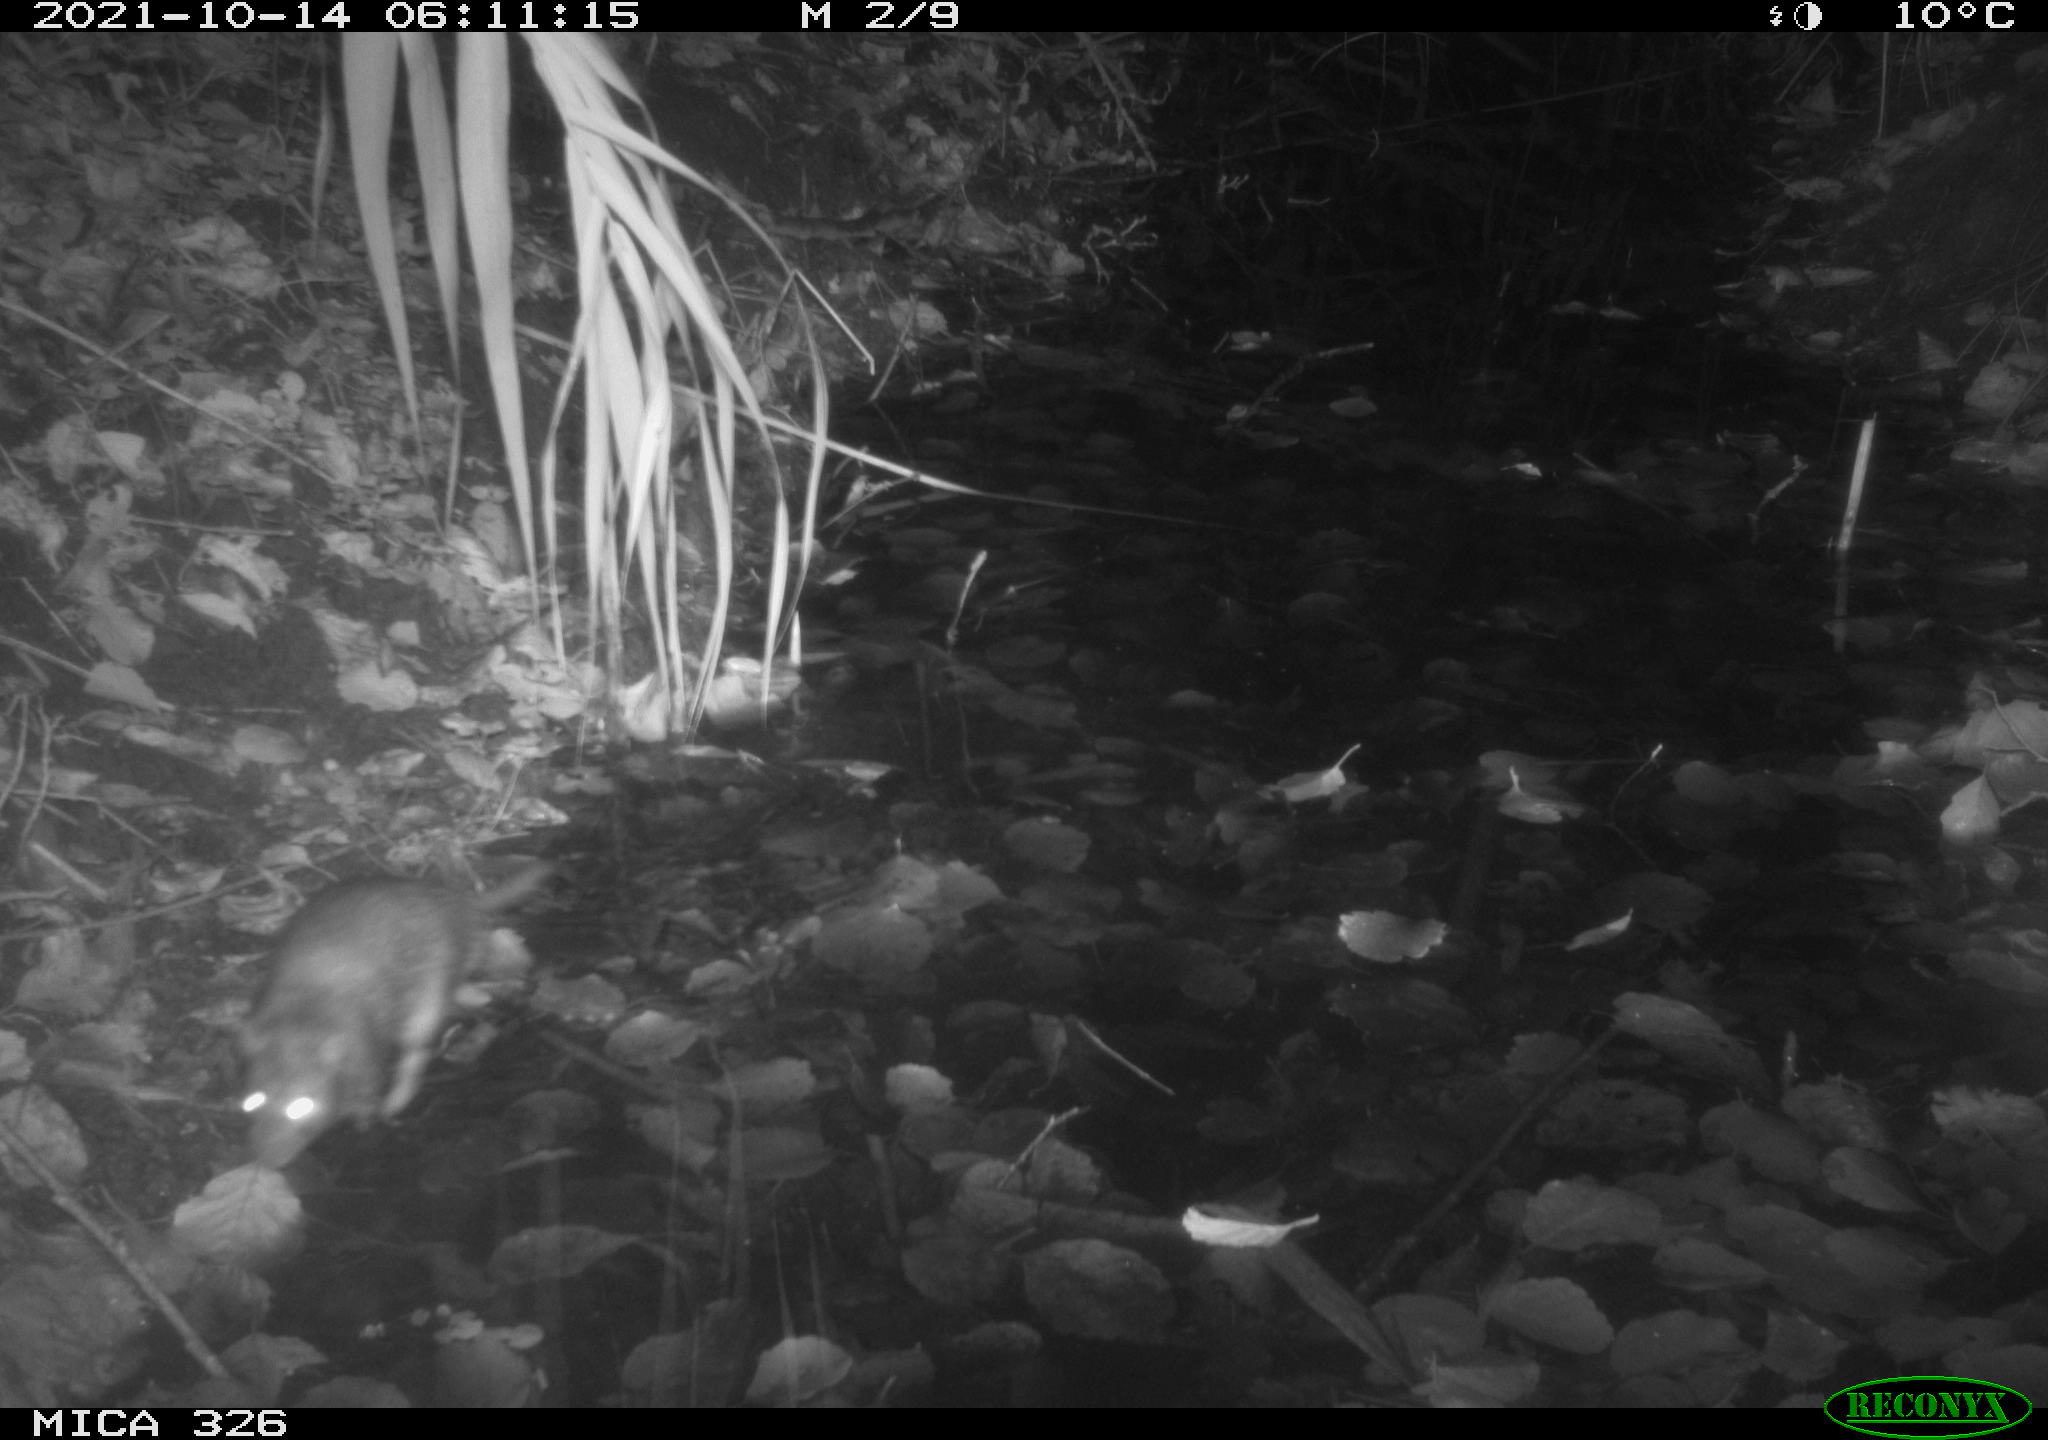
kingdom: Animalia
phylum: Chordata
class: Mammalia
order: Rodentia
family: Muridae
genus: Rattus
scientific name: Rattus norvegicus
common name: Brown rat
